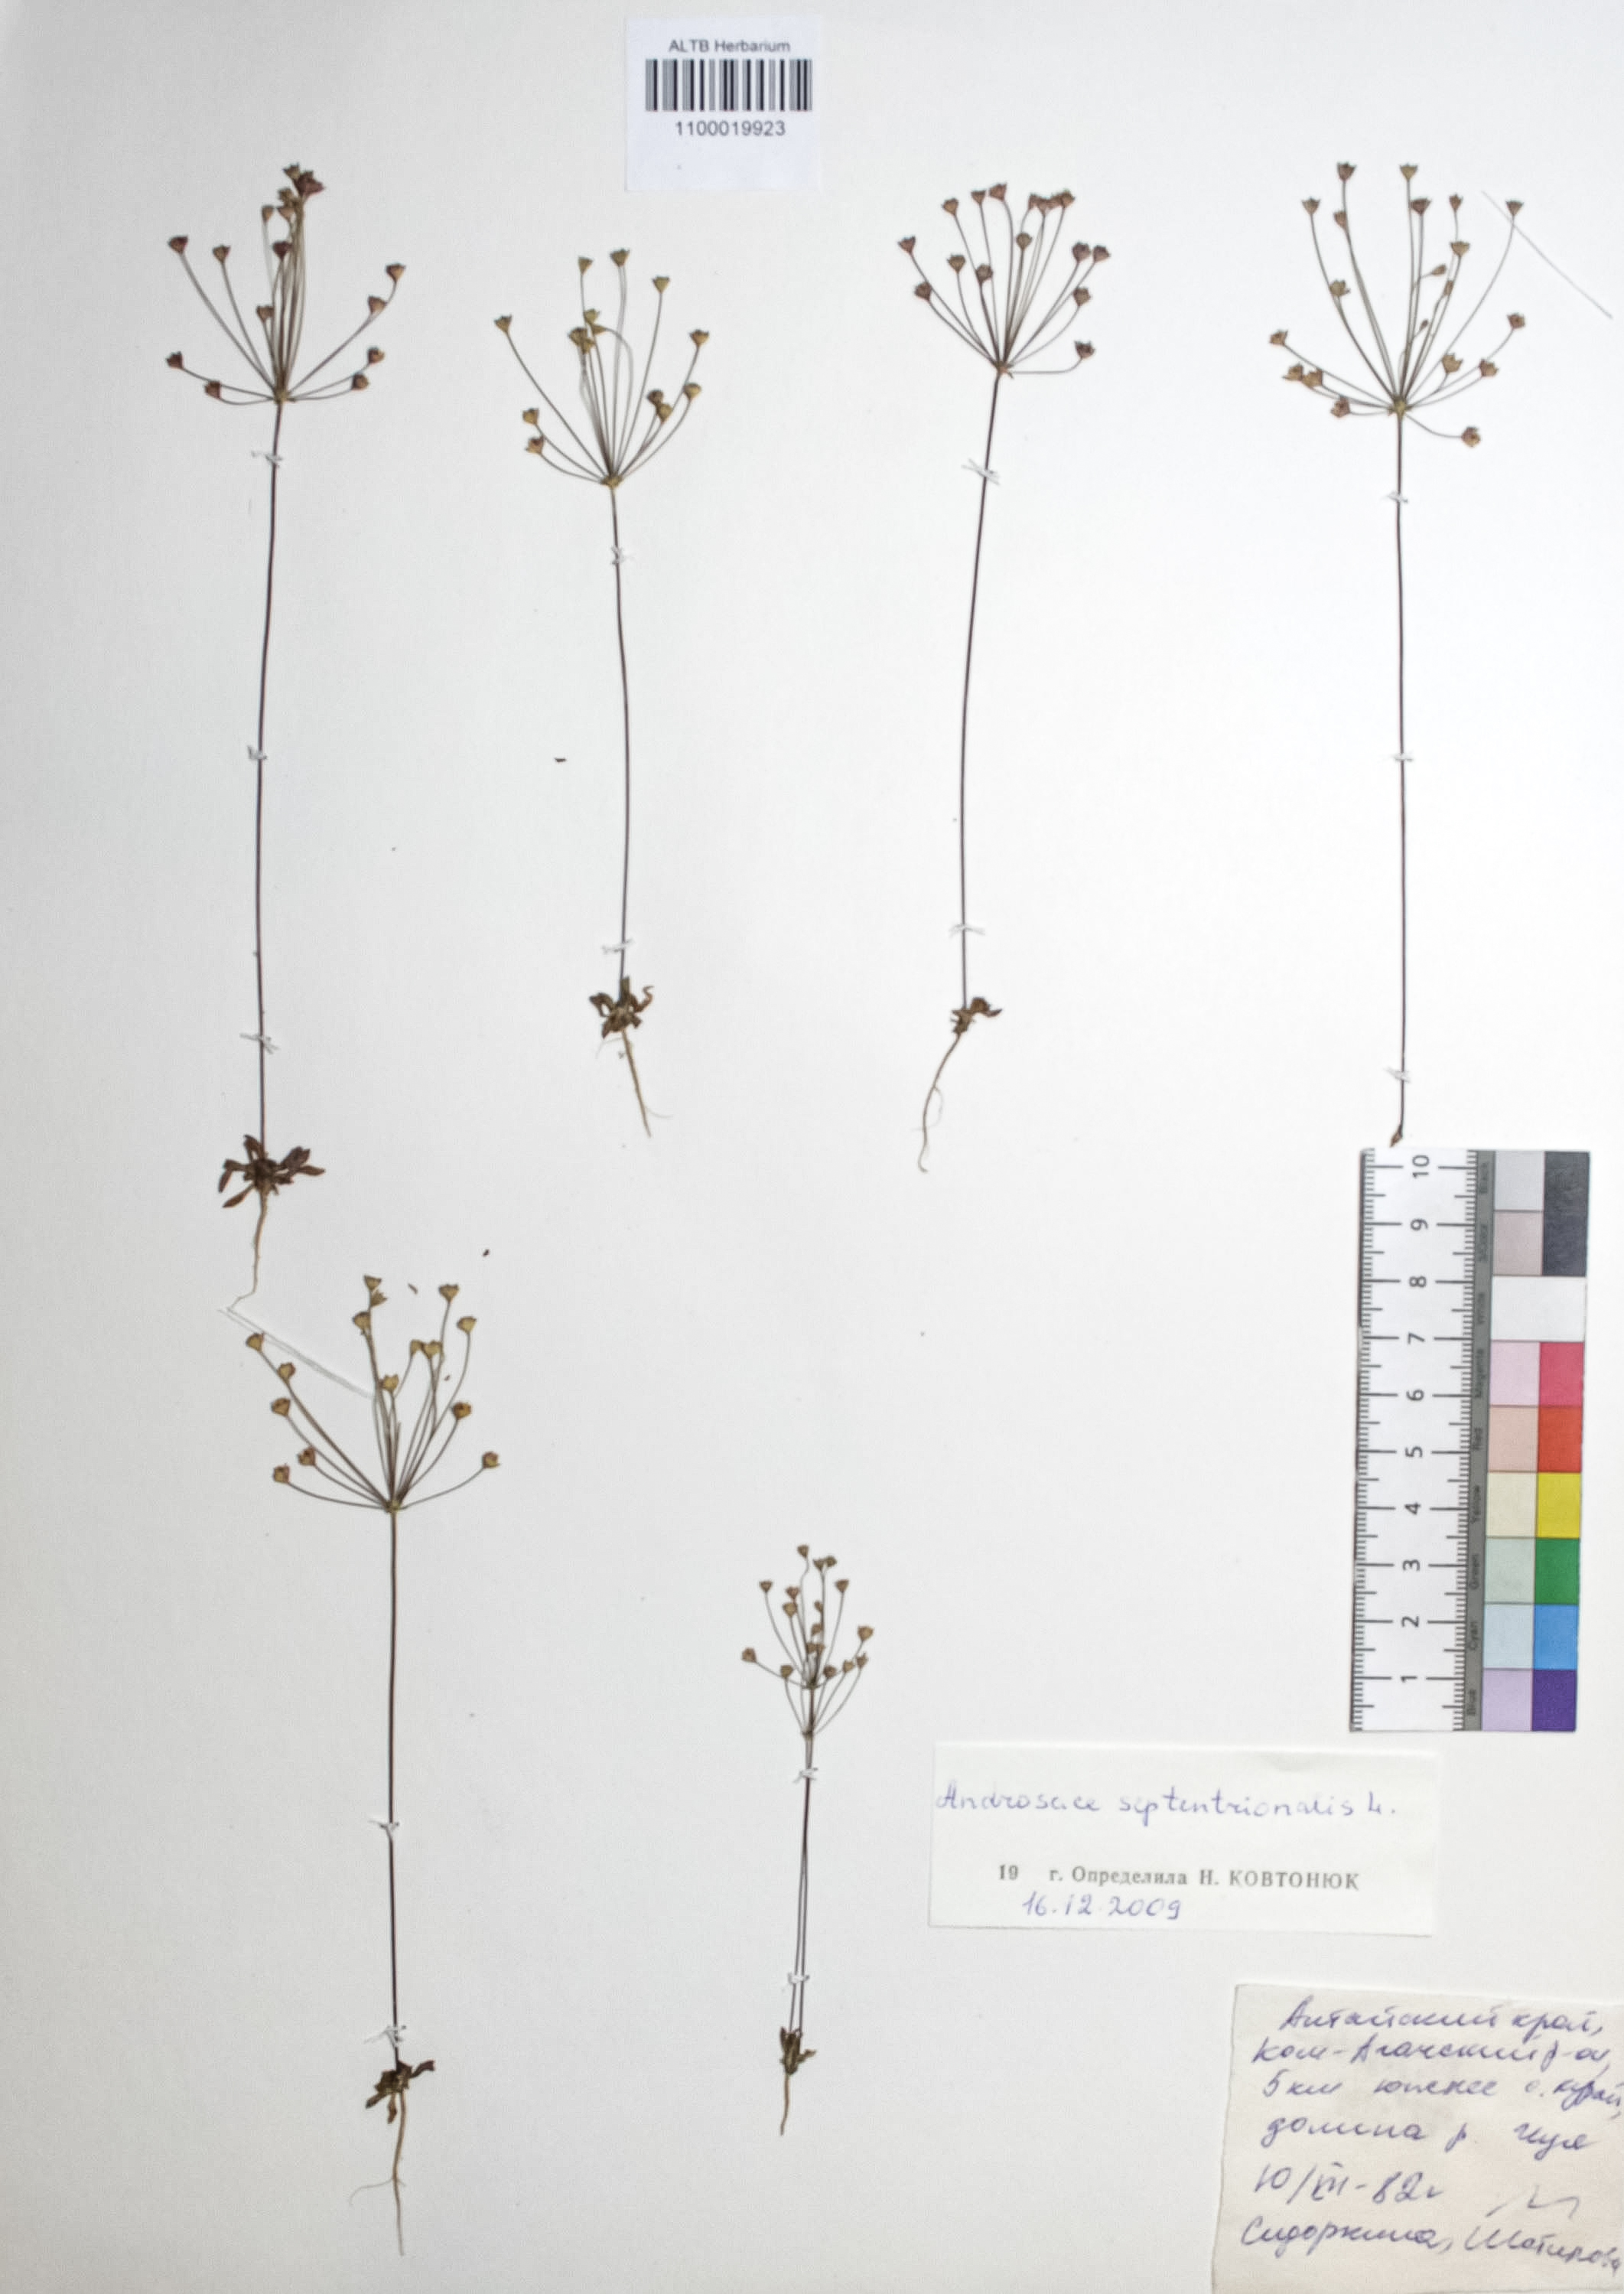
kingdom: Plantae
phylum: Tracheophyta
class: Magnoliopsida
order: Ericales
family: Primulaceae
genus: Androsace
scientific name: Androsace septentrionalis
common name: Hairy northern fairy-candelabra
